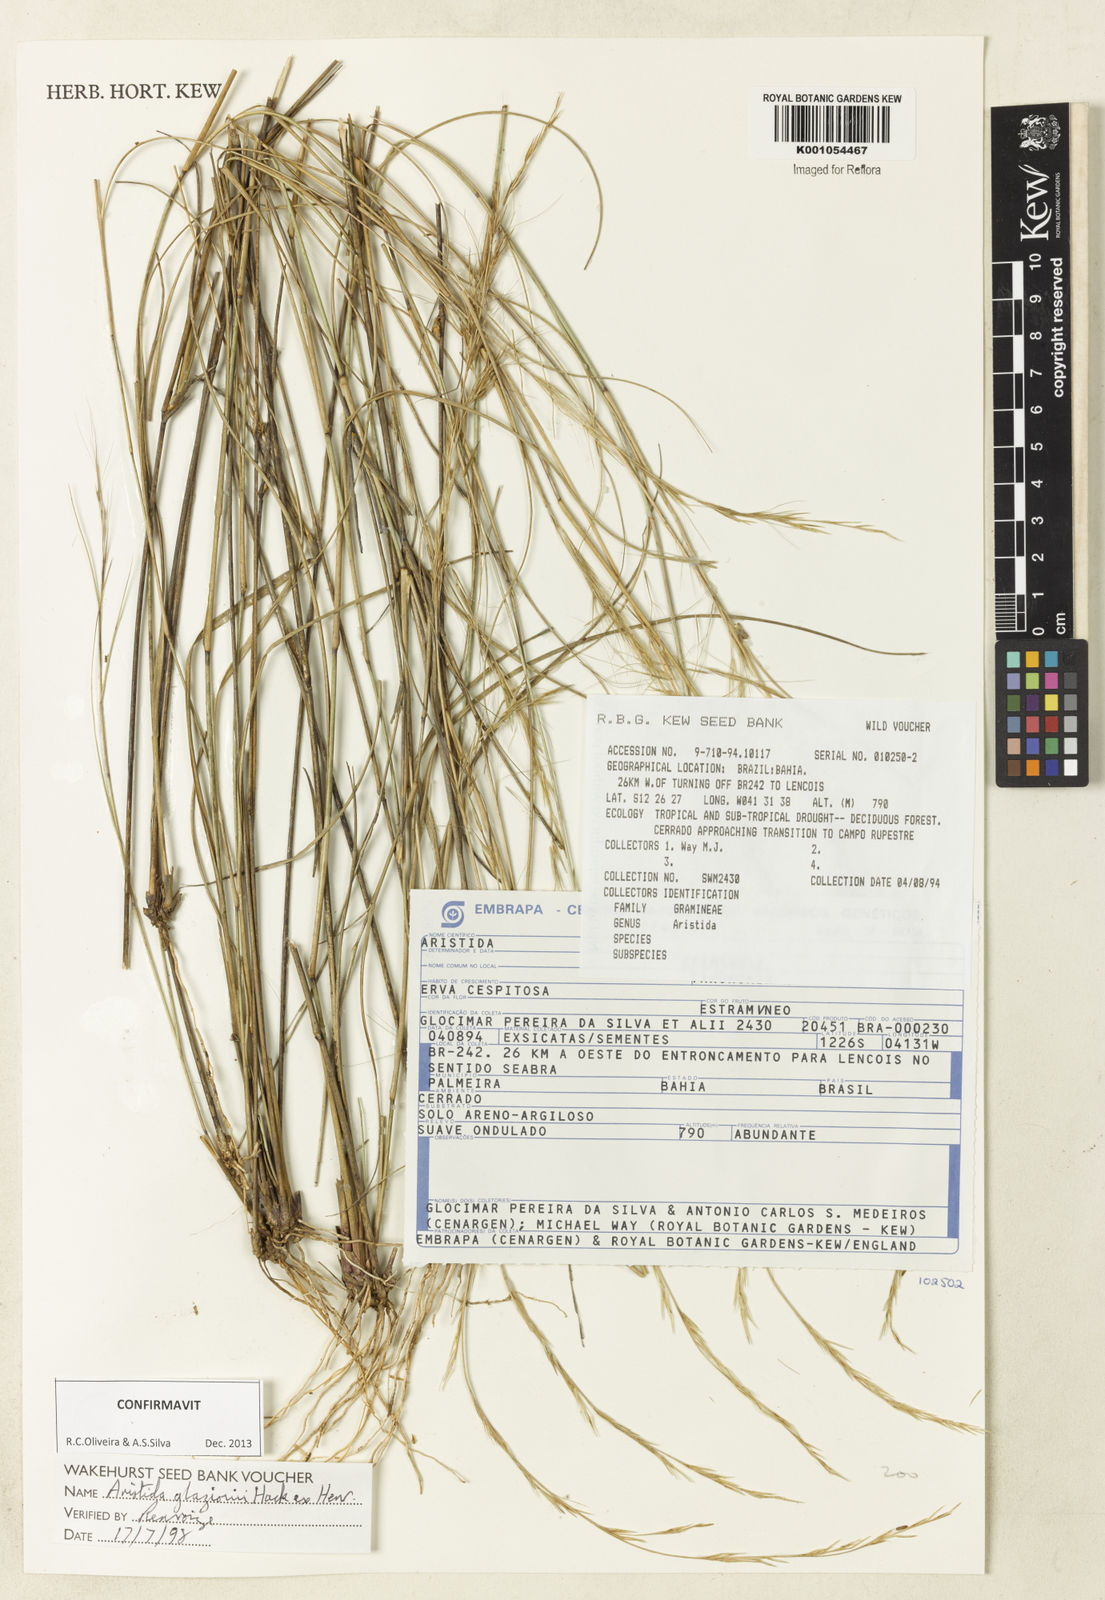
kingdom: Plantae
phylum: Tracheophyta
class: Liliopsida
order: Poales
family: Poaceae
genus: Aristida
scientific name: Aristida glaziovii
